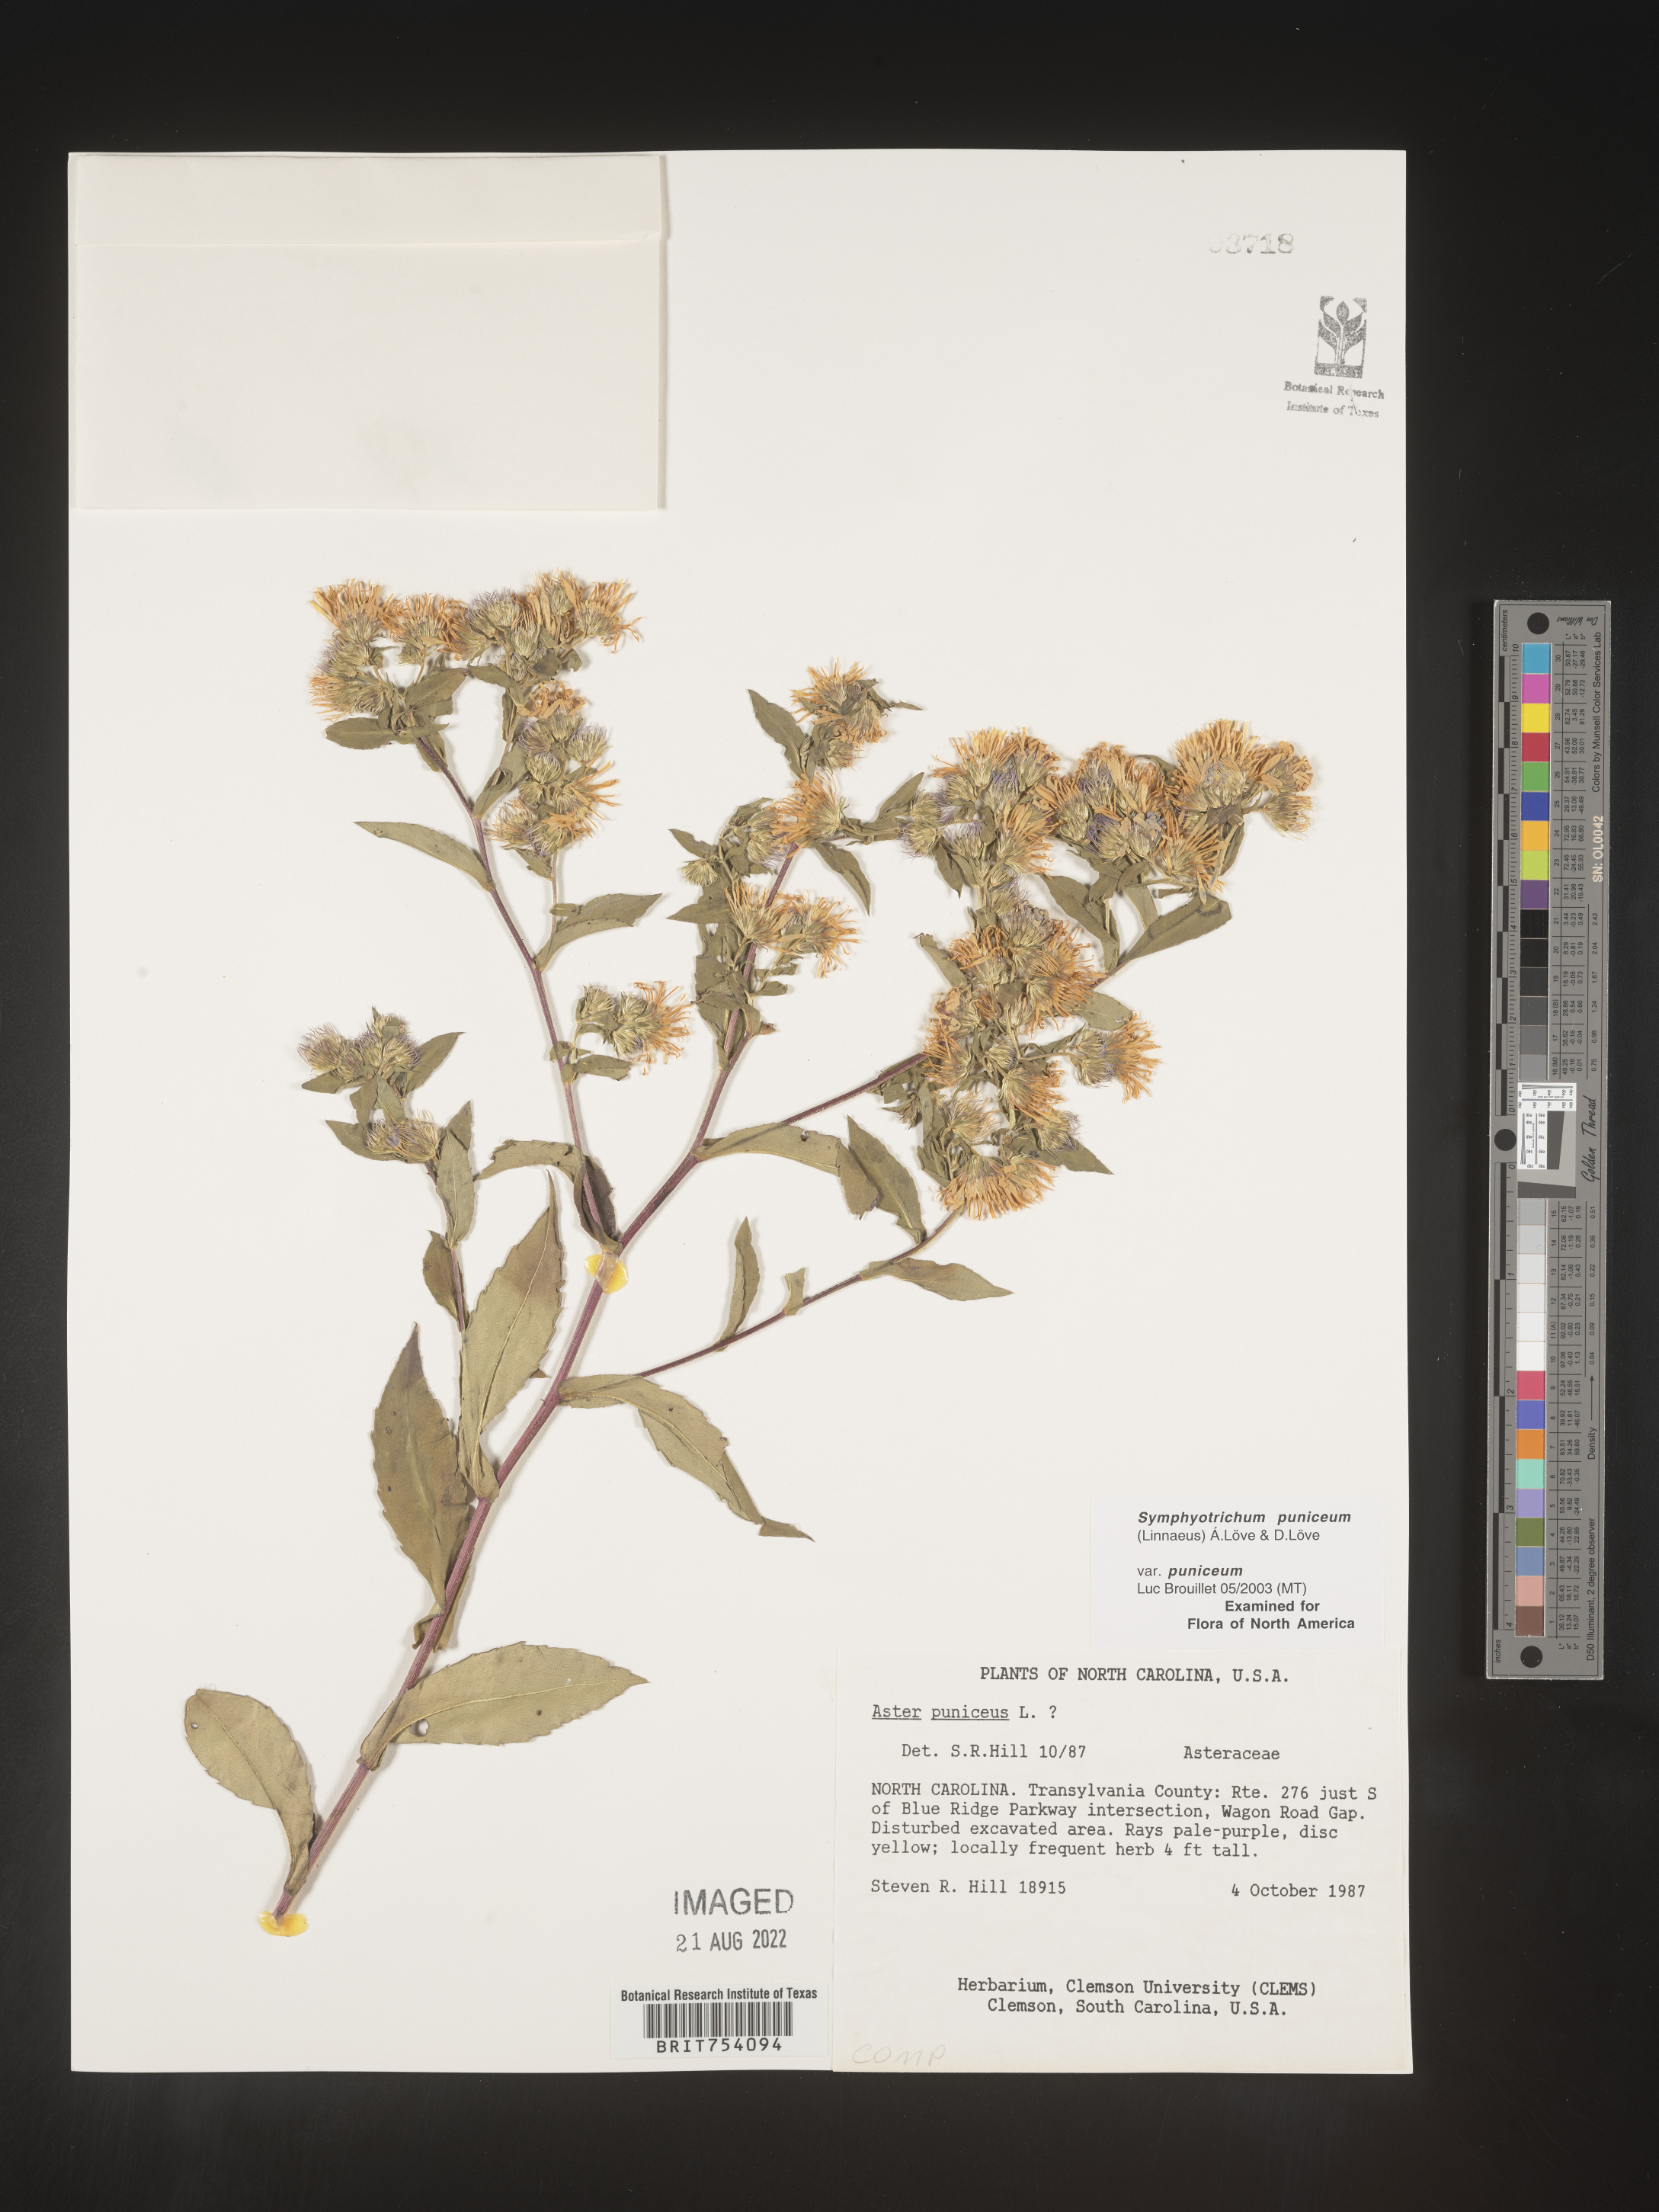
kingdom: Plantae
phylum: Tracheophyta
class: Magnoliopsida
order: Asterales
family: Asteraceae
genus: Symphyotrichum
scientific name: Symphyotrichum puniceum
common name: Bog aster
